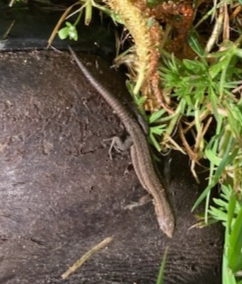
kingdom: Animalia
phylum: Chordata
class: Squamata
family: Lacertidae
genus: Zootoca
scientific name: Zootoca vivipara
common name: Skovfirben
